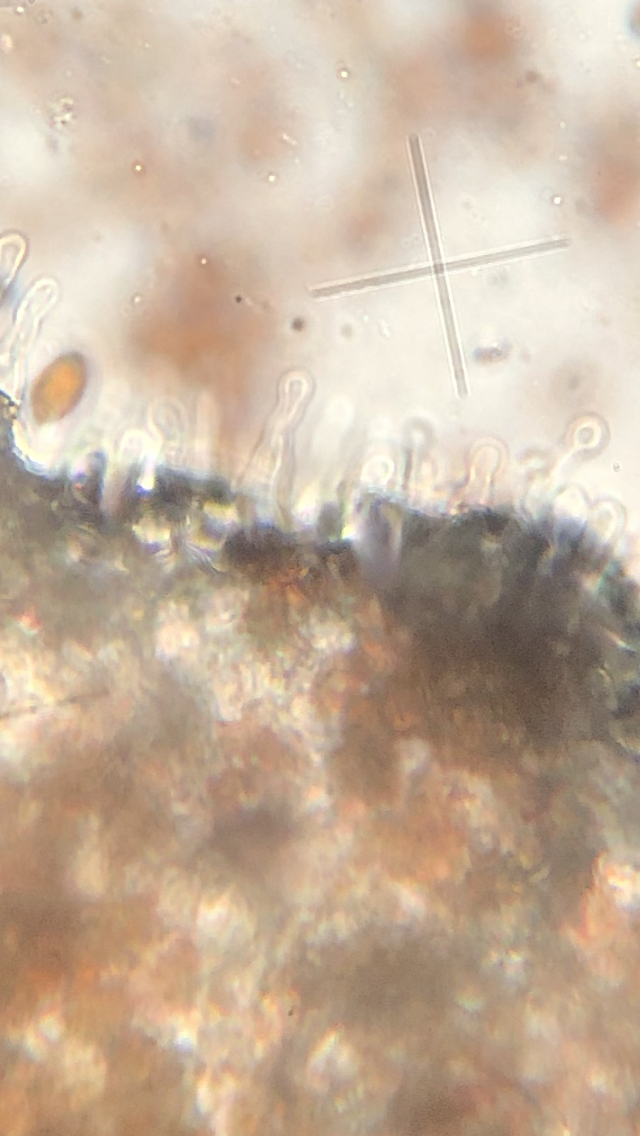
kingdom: Fungi
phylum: Basidiomycota
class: Agaricomycetes
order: Agaricales
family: Bolbitiaceae
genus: Panaeolina
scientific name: Panaeolina foenisecii
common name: høslætsvamp
